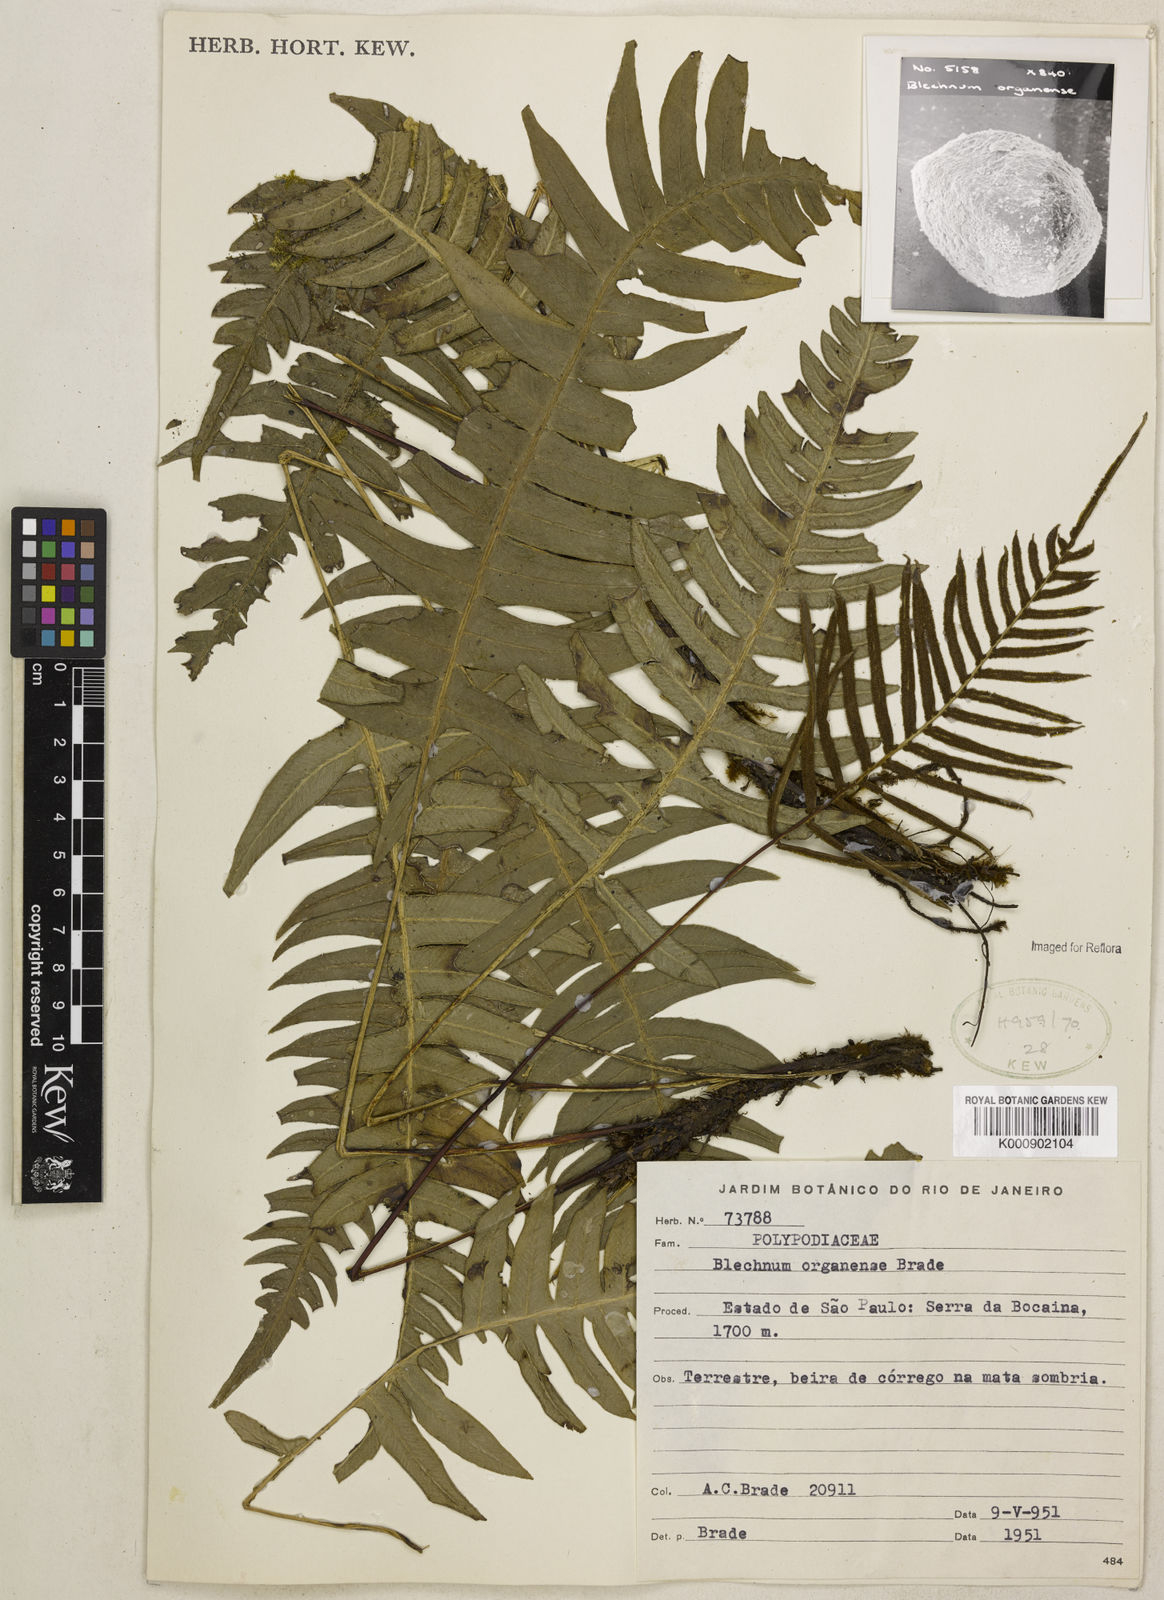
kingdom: Plantae
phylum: Tracheophyta
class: Polypodiopsida
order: Polypodiales
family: Blechnaceae
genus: Austroblechnum
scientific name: Austroblechnum organense
